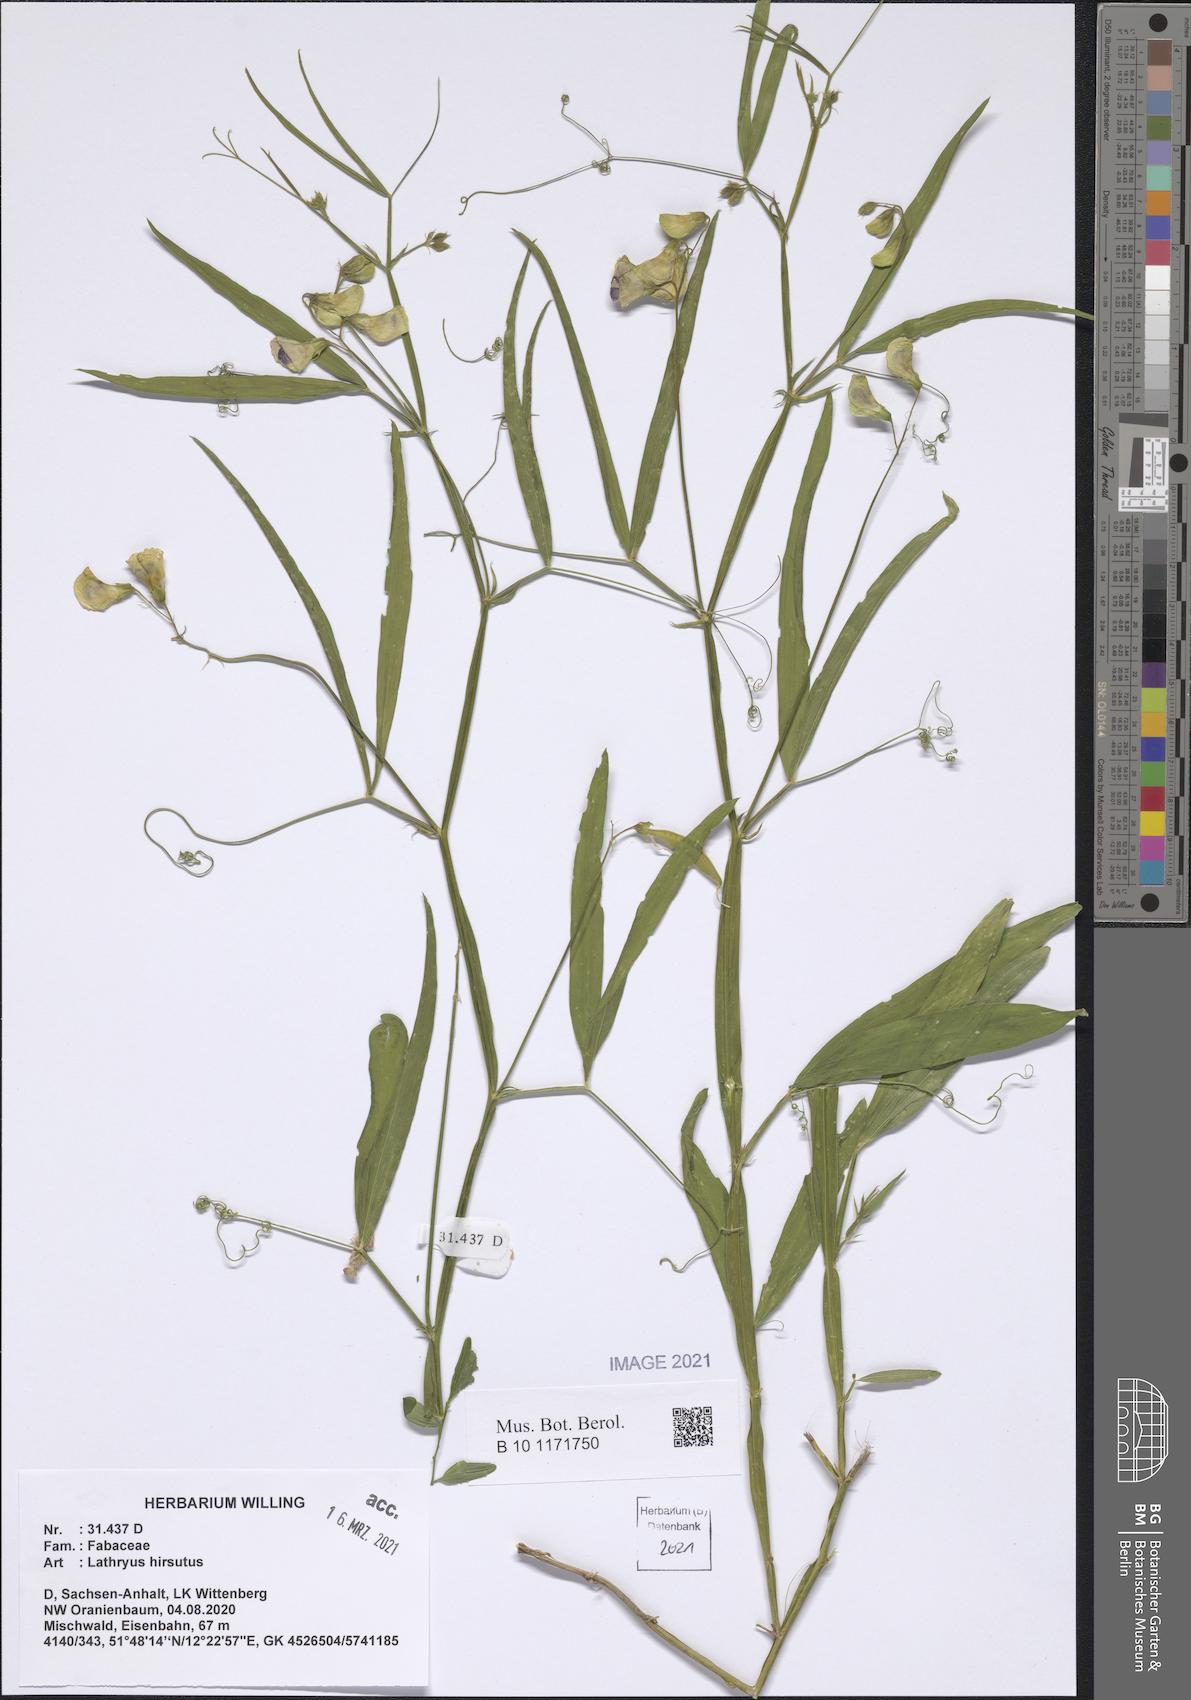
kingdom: Plantae
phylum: Tracheophyta
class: Magnoliopsida
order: Fabales
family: Fabaceae
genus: Lathyrus
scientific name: Lathyrus hirsutus
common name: Hairy vetchling
